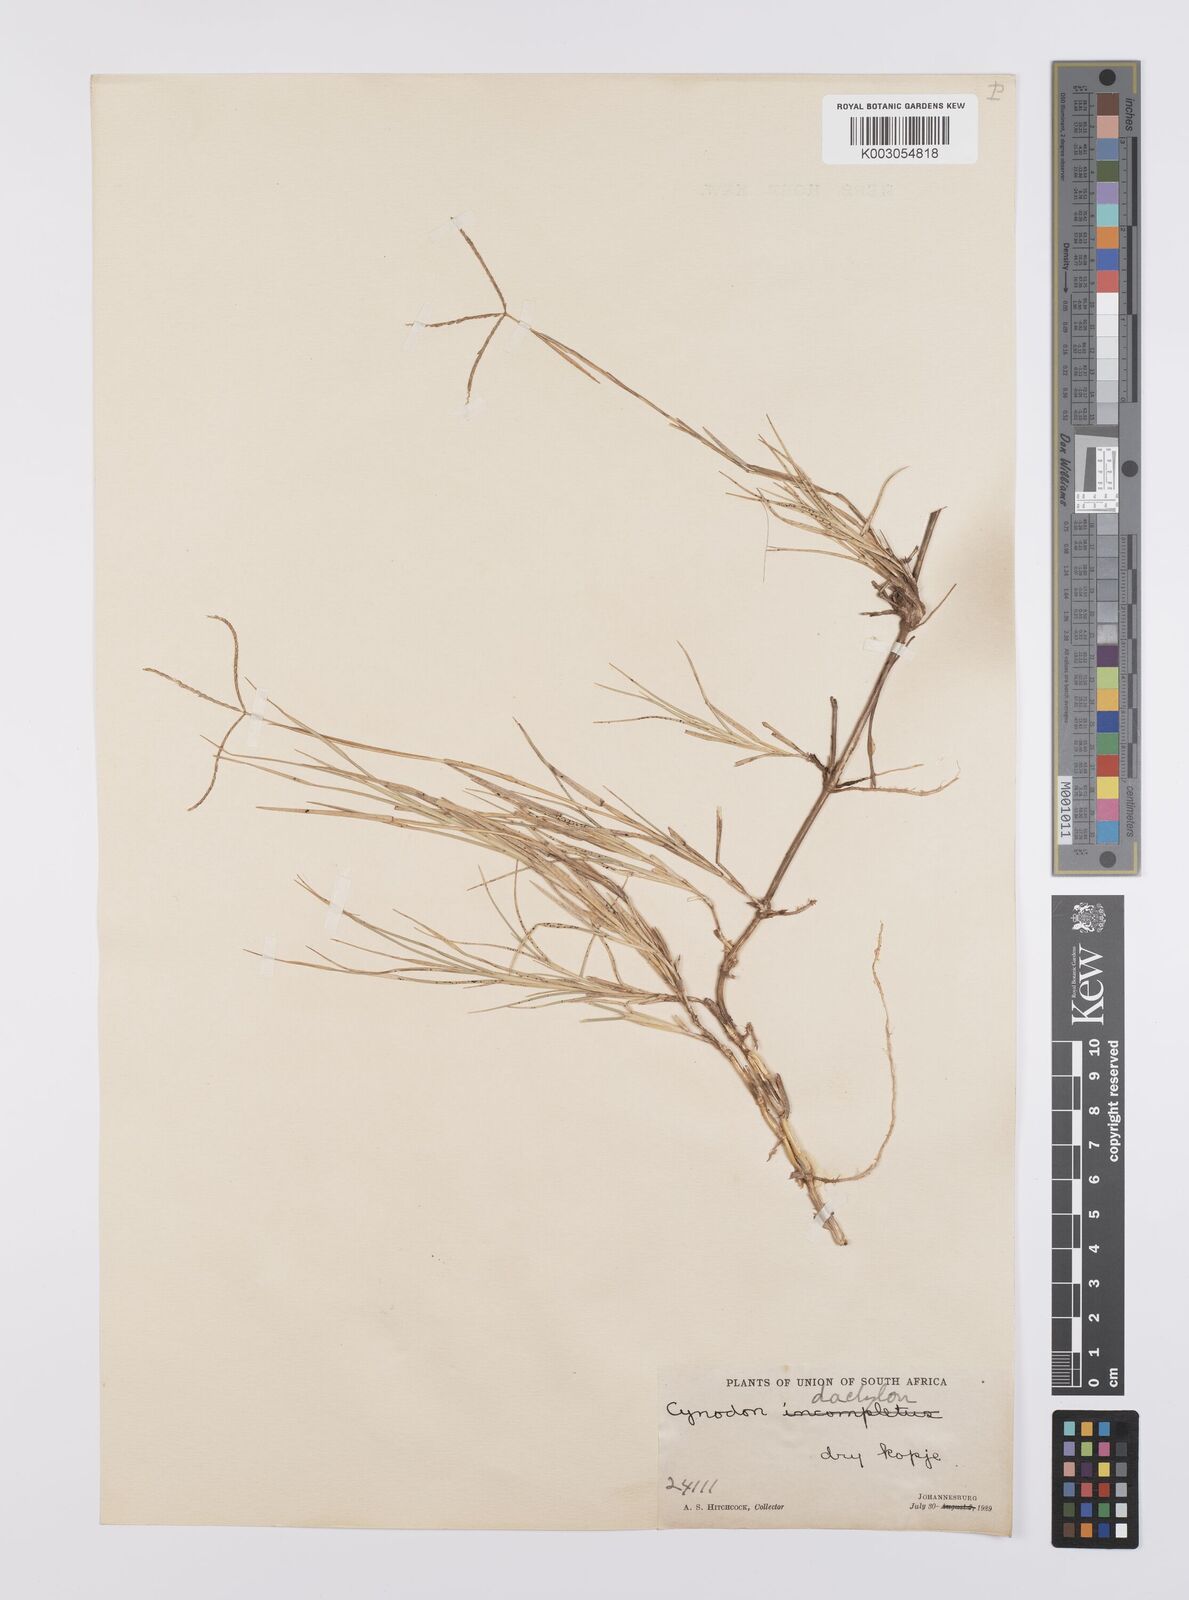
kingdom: Plantae
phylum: Tracheophyta
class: Liliopsida
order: Poales
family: Poaceae
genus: Cynodon
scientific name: Cynodon dactylon
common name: Bermuda grass
